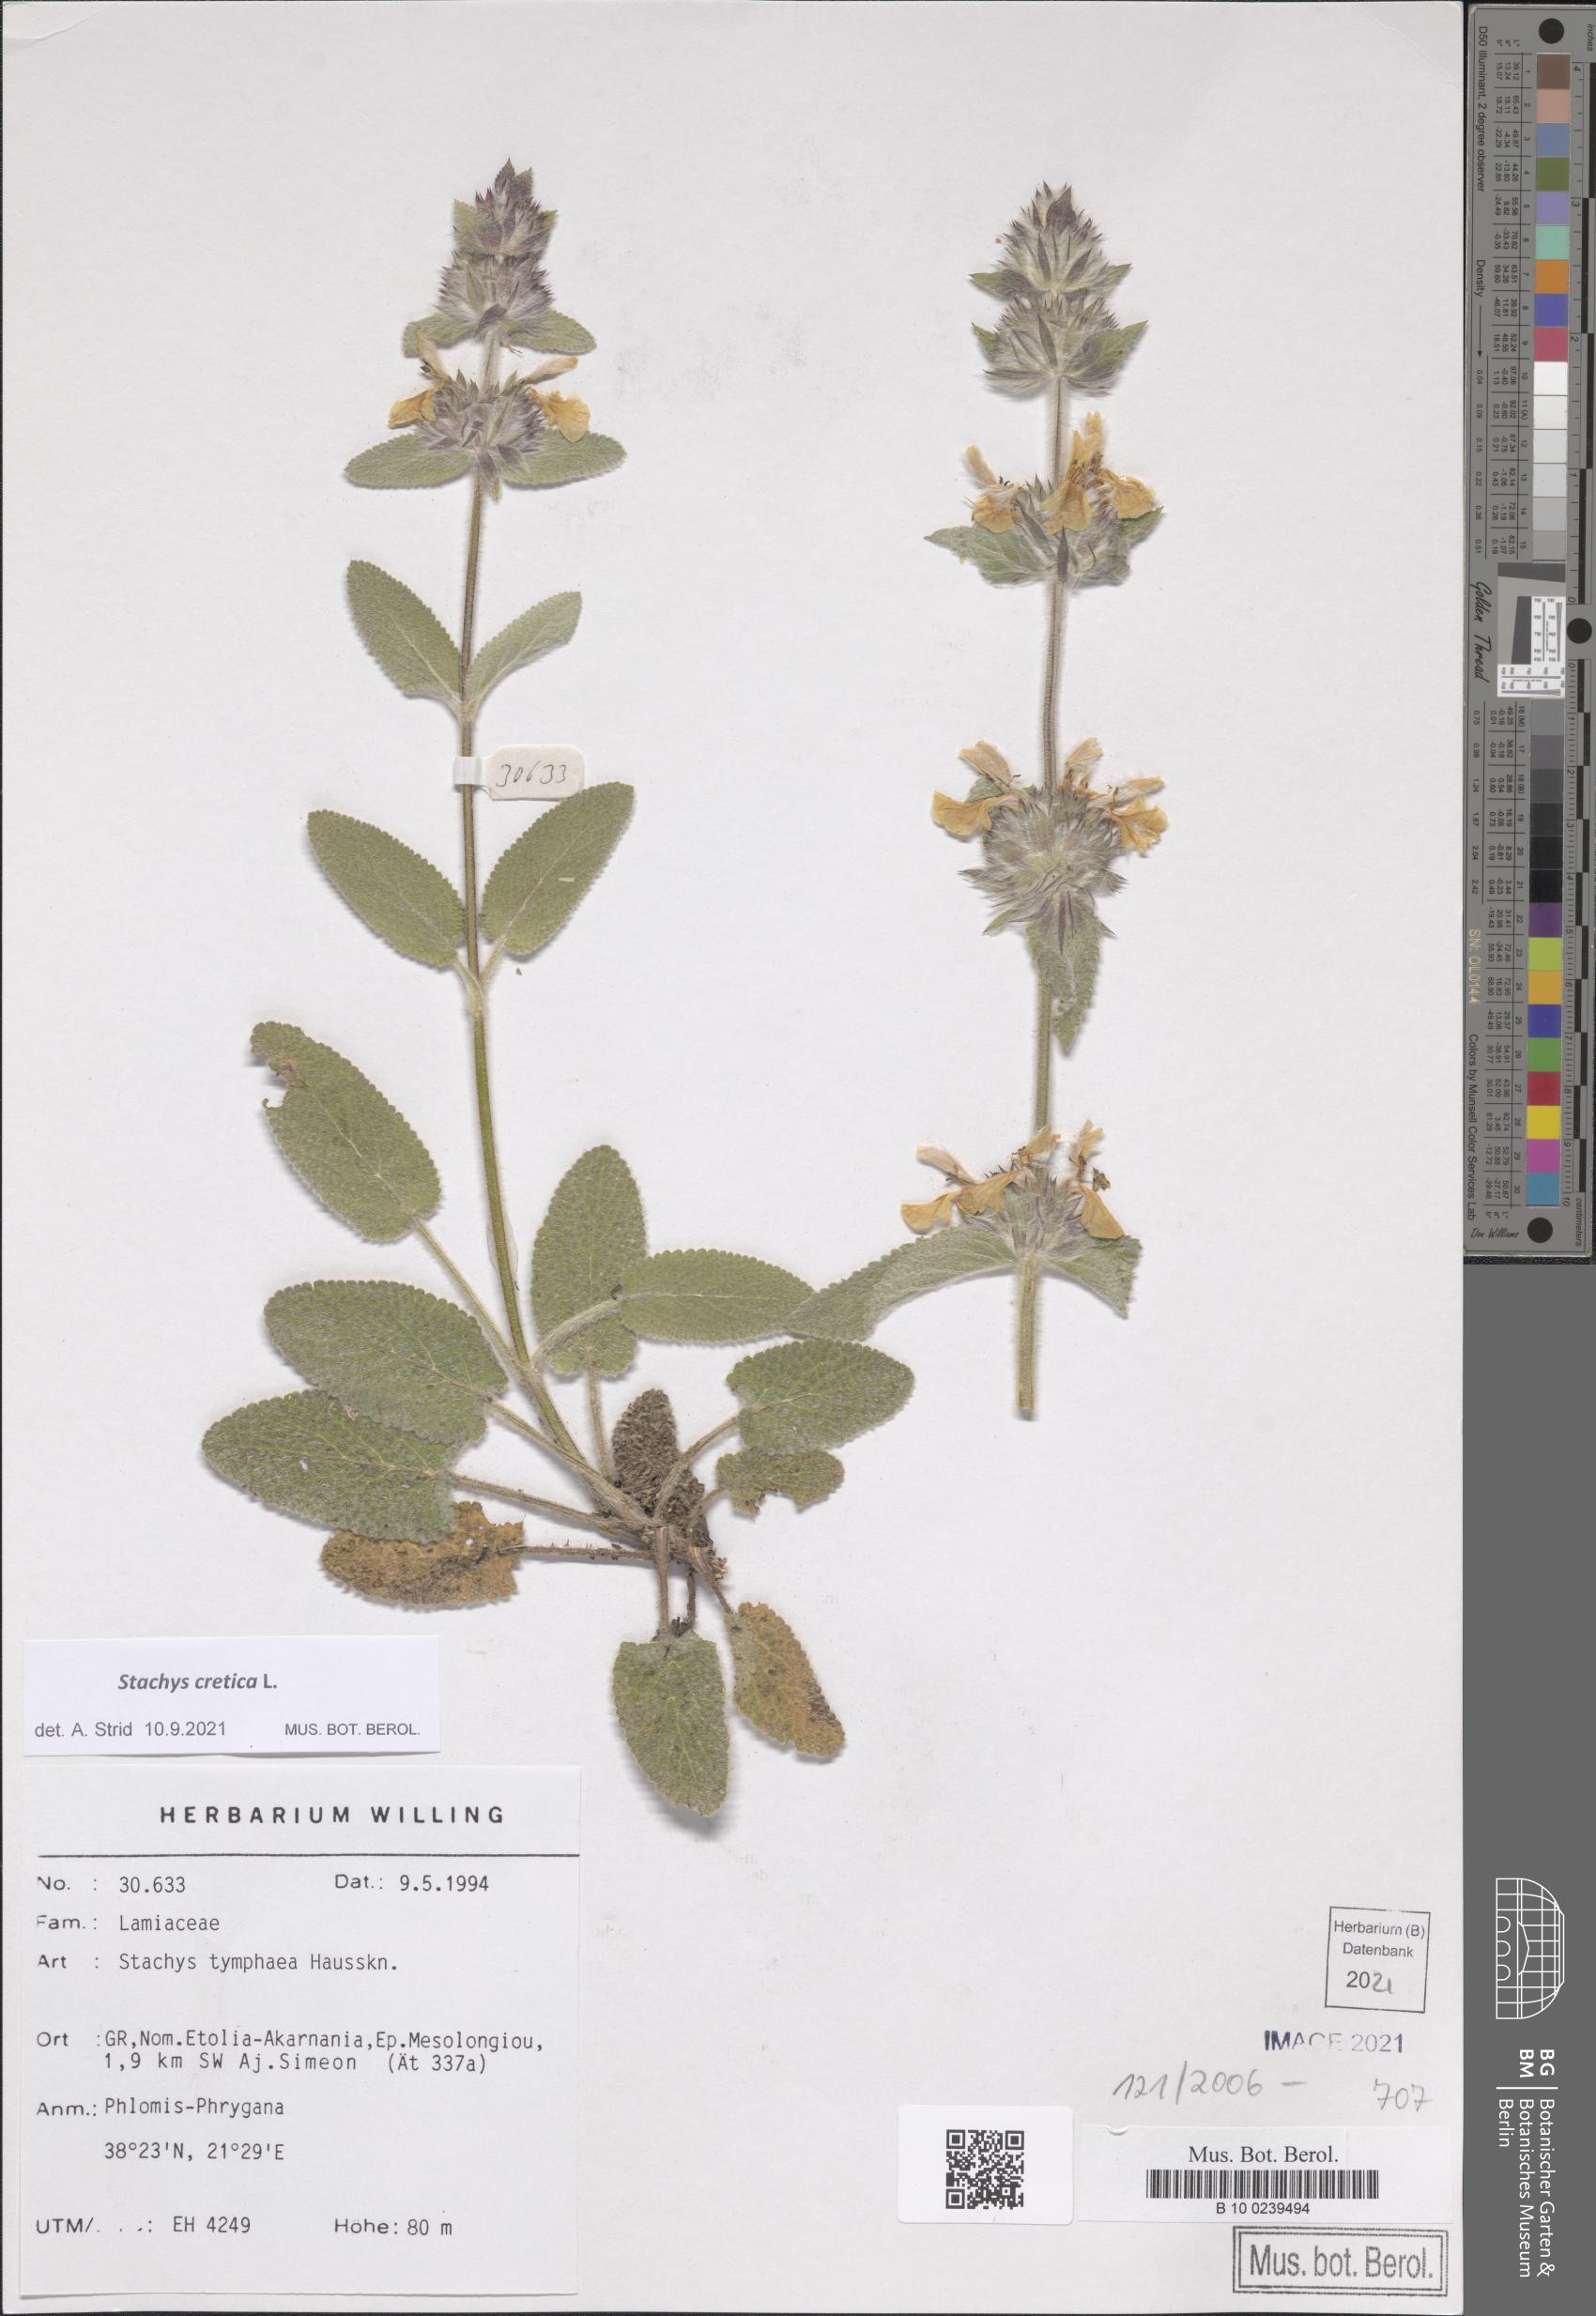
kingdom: Plantae
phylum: Tracheophyta
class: Magnoliopsida
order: Lamiales
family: Lamiaceae
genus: Stachys
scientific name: Stachys cretica
